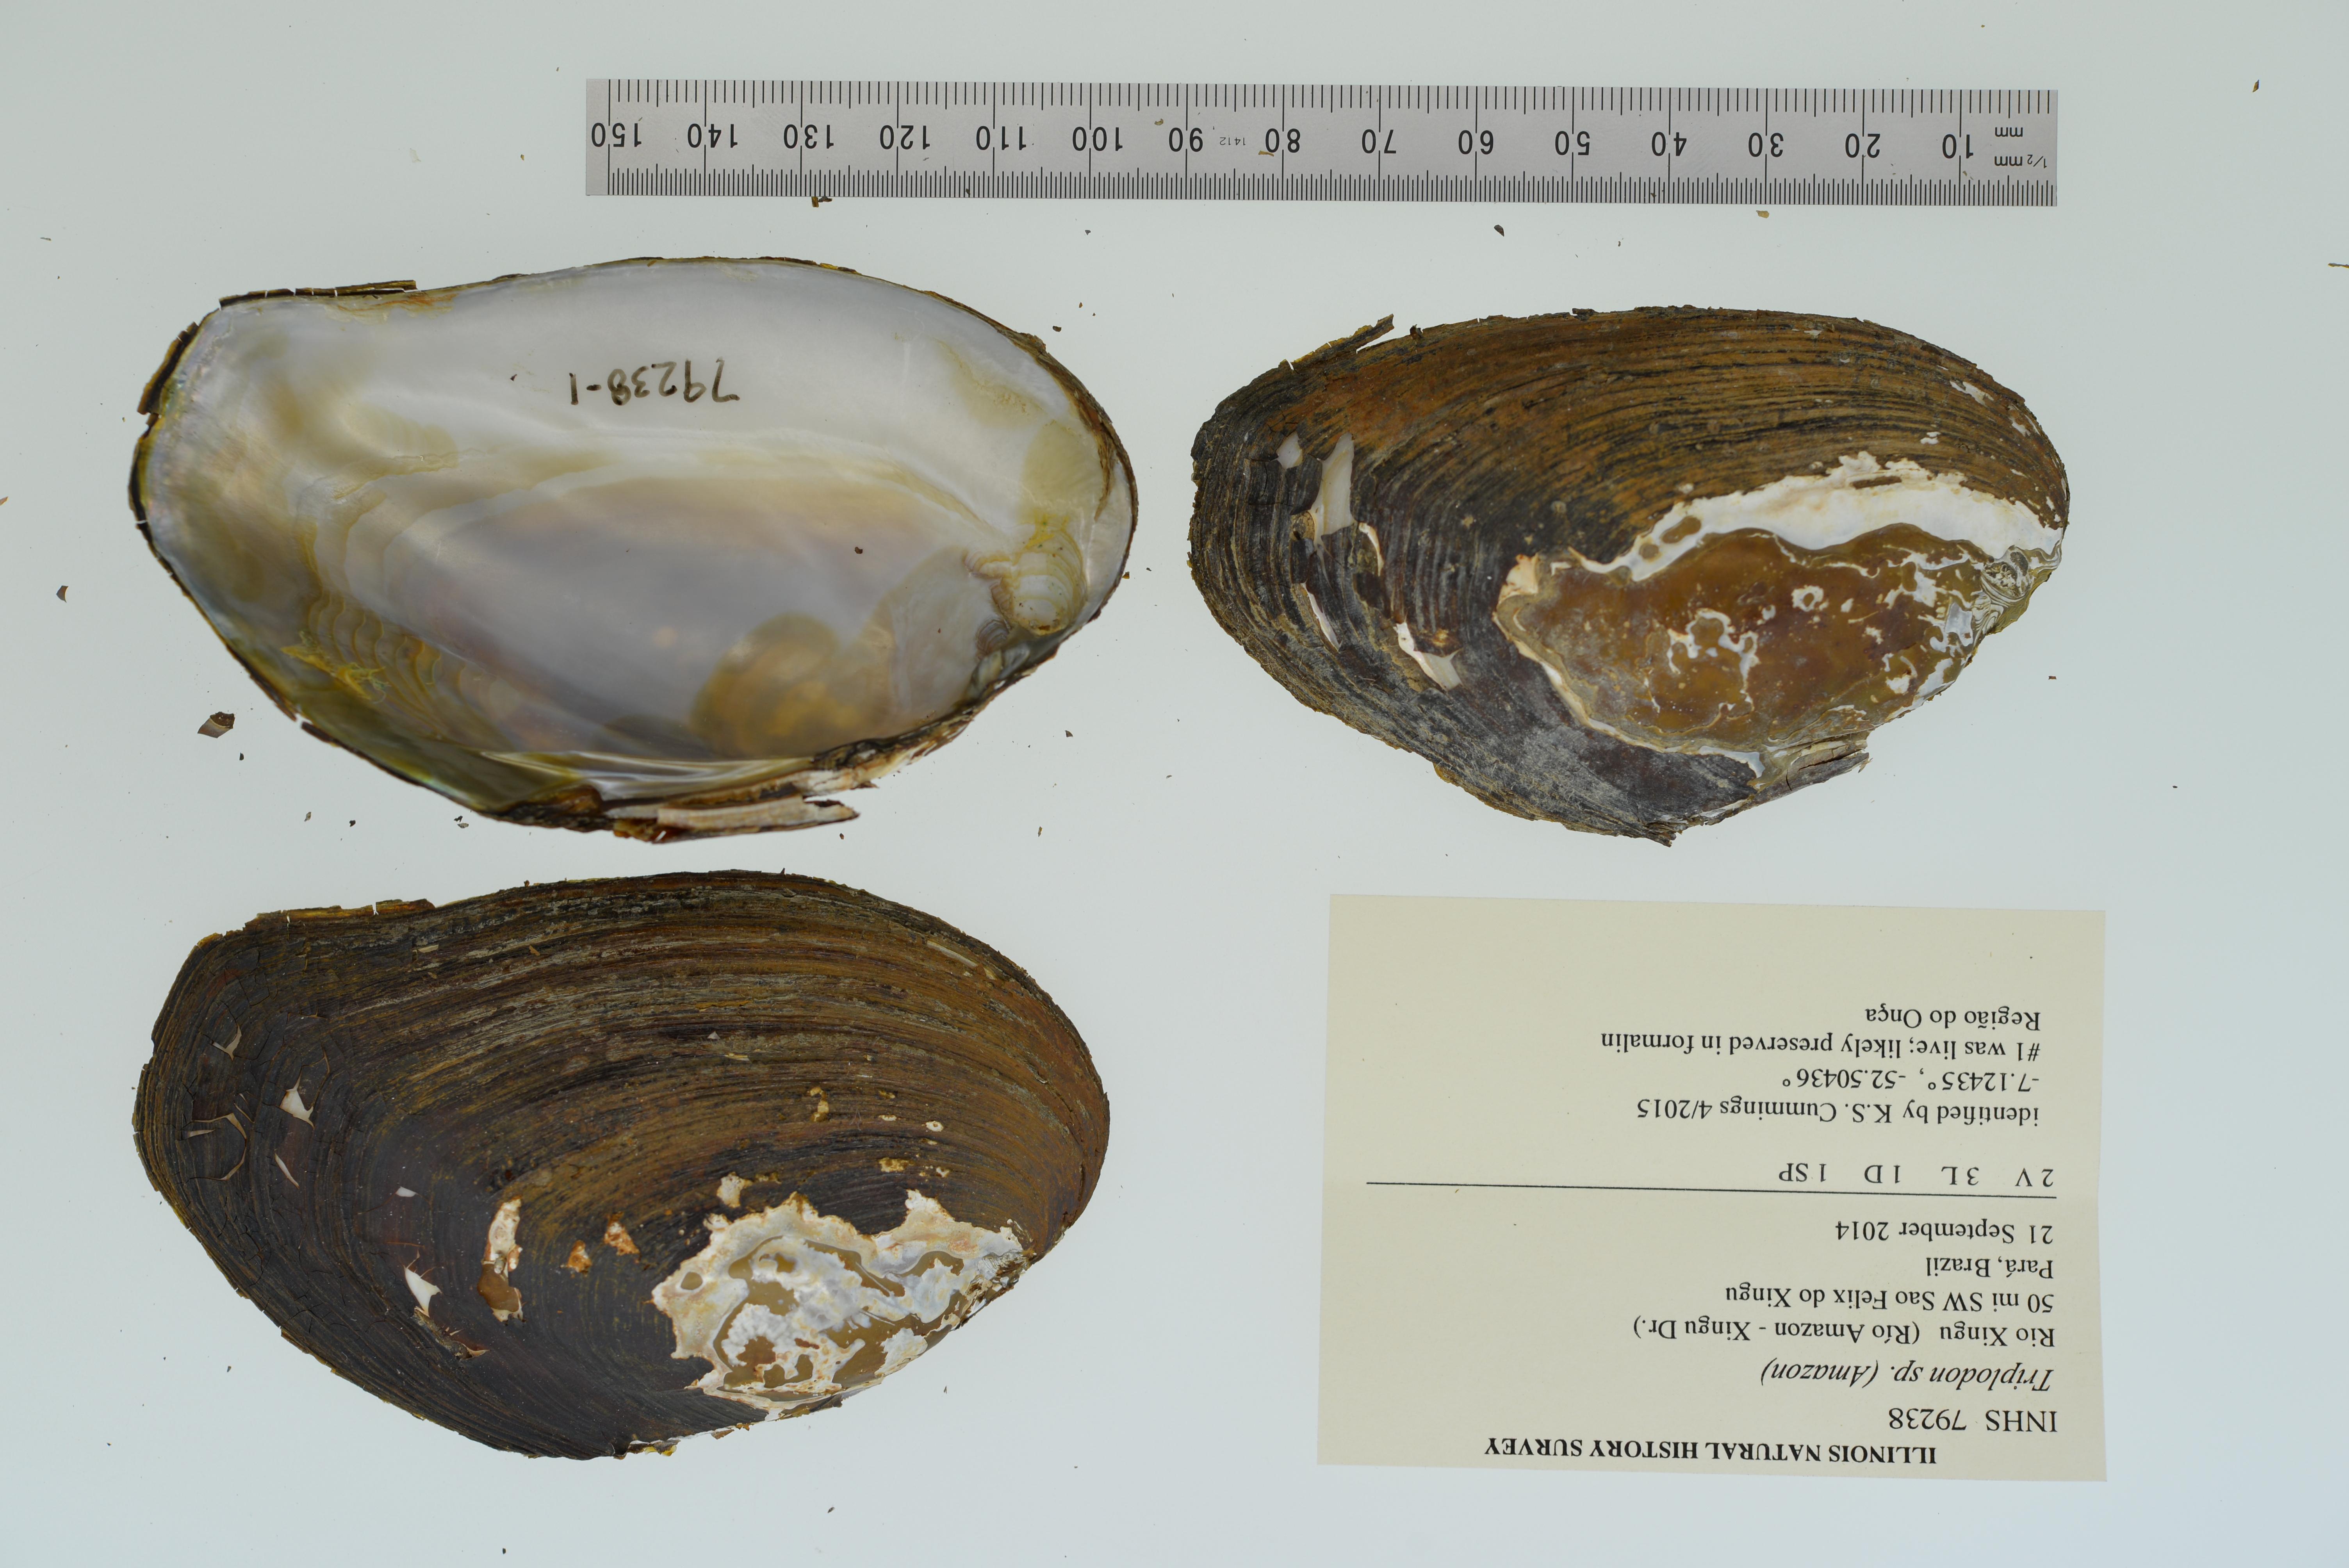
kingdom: Animalia
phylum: Mollusca
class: Bivalvia
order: Unionida
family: Hyriidae
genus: Diplodon
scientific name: Diplodon
